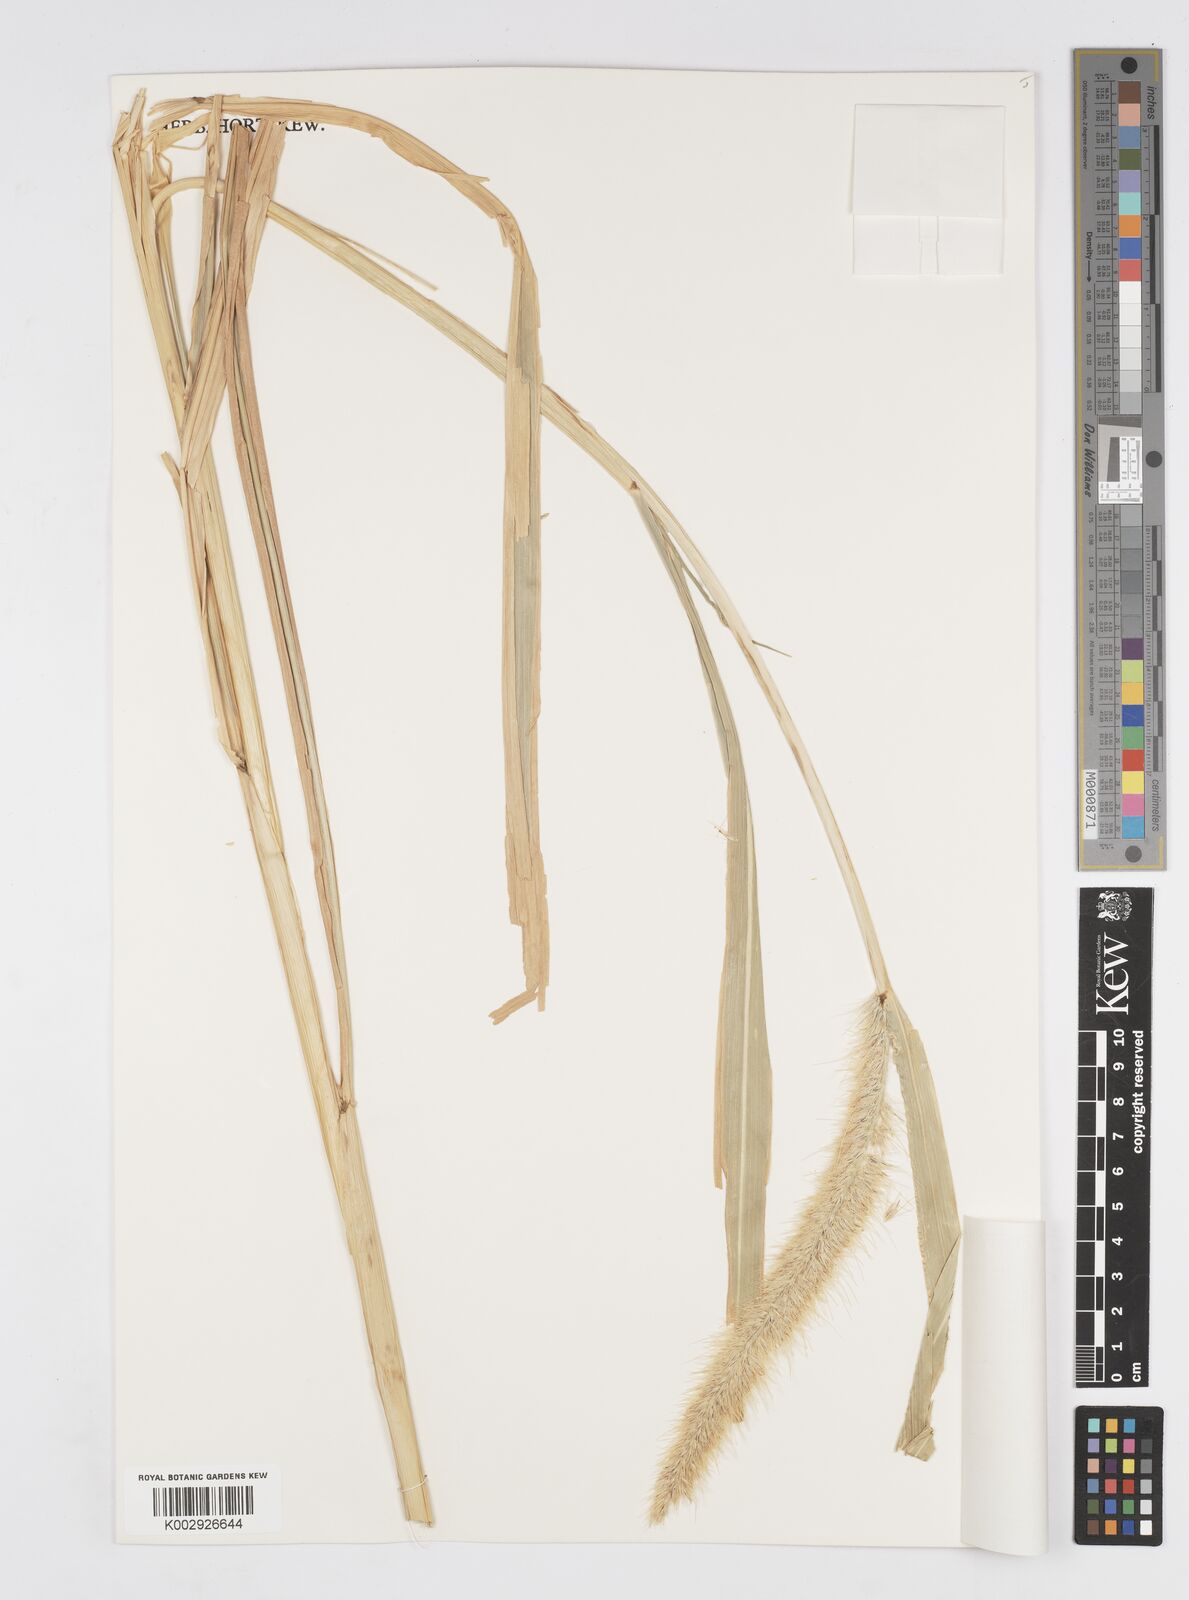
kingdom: Plantae
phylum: Tracheophyta
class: Liliopsida
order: Poales
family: Poaceae
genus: Cenchrus
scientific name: Cenchrus purpureus
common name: Elephant grass
